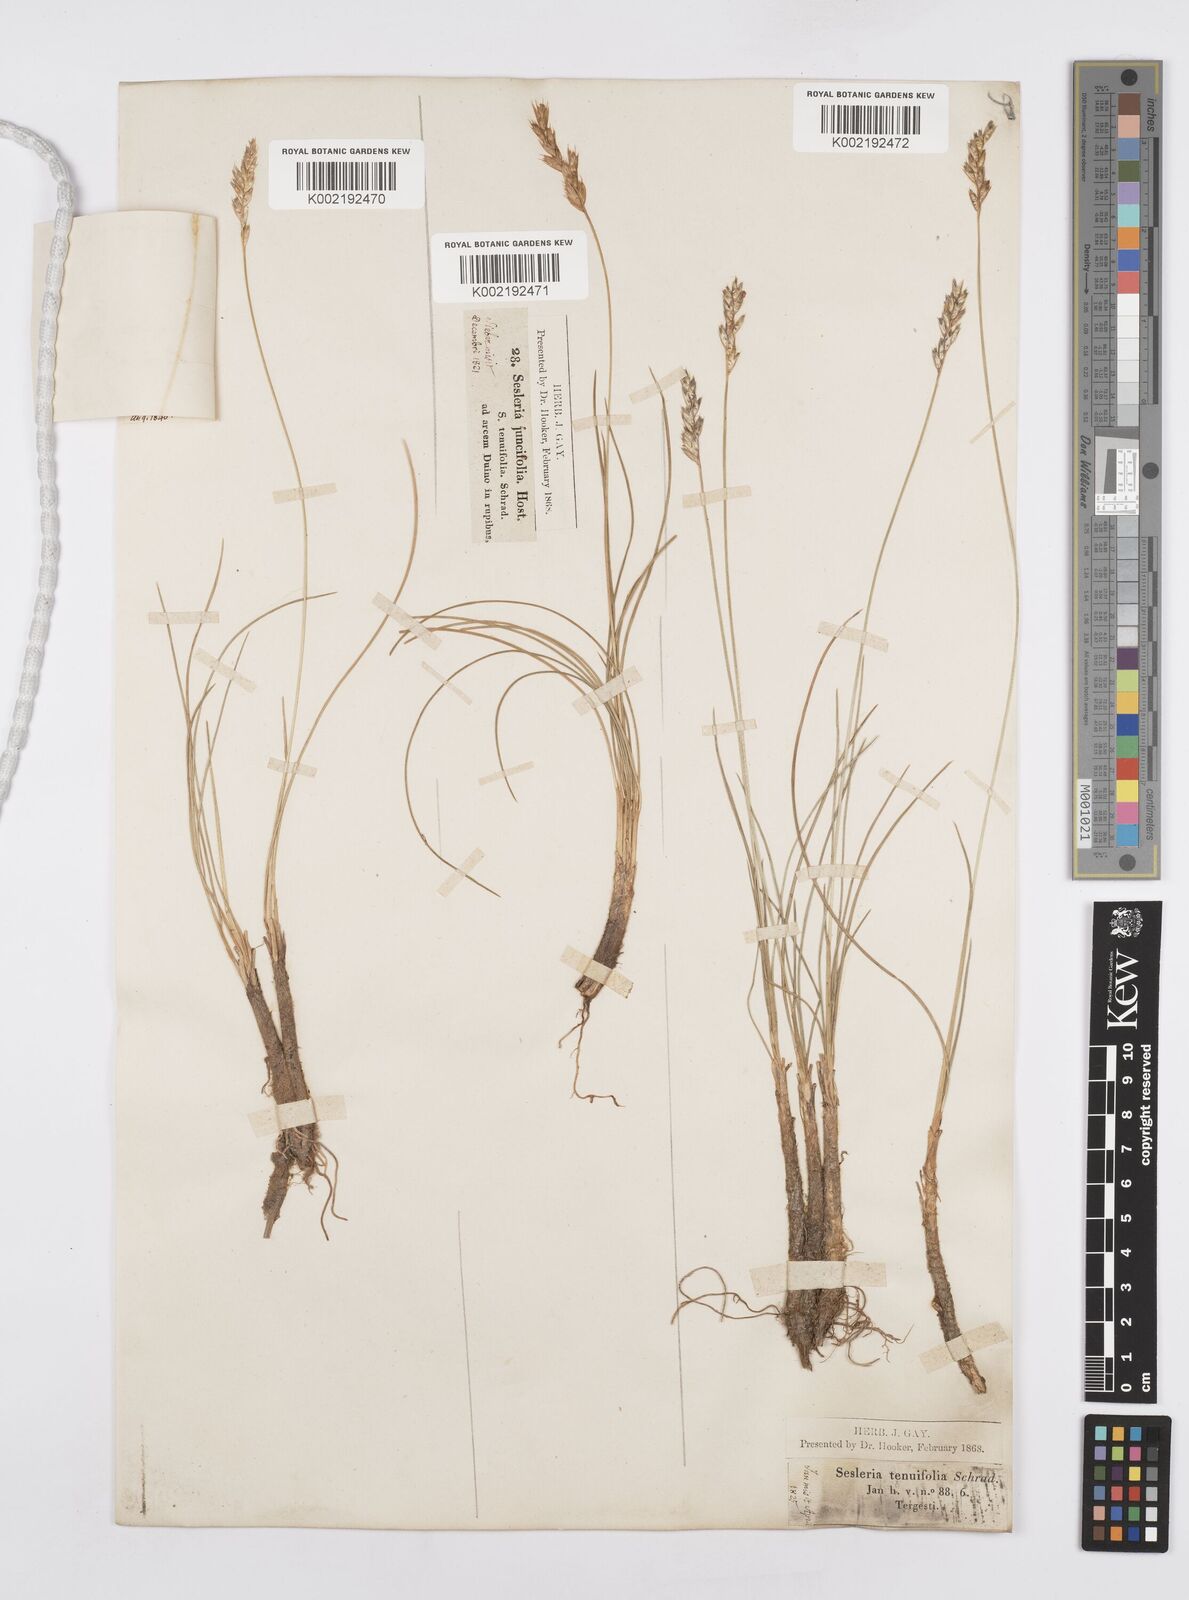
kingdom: Plantae
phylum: Tracheophyta
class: Liliopsida
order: Poales
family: Poaceae
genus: Sesleria
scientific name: Sesleria juncifolia
